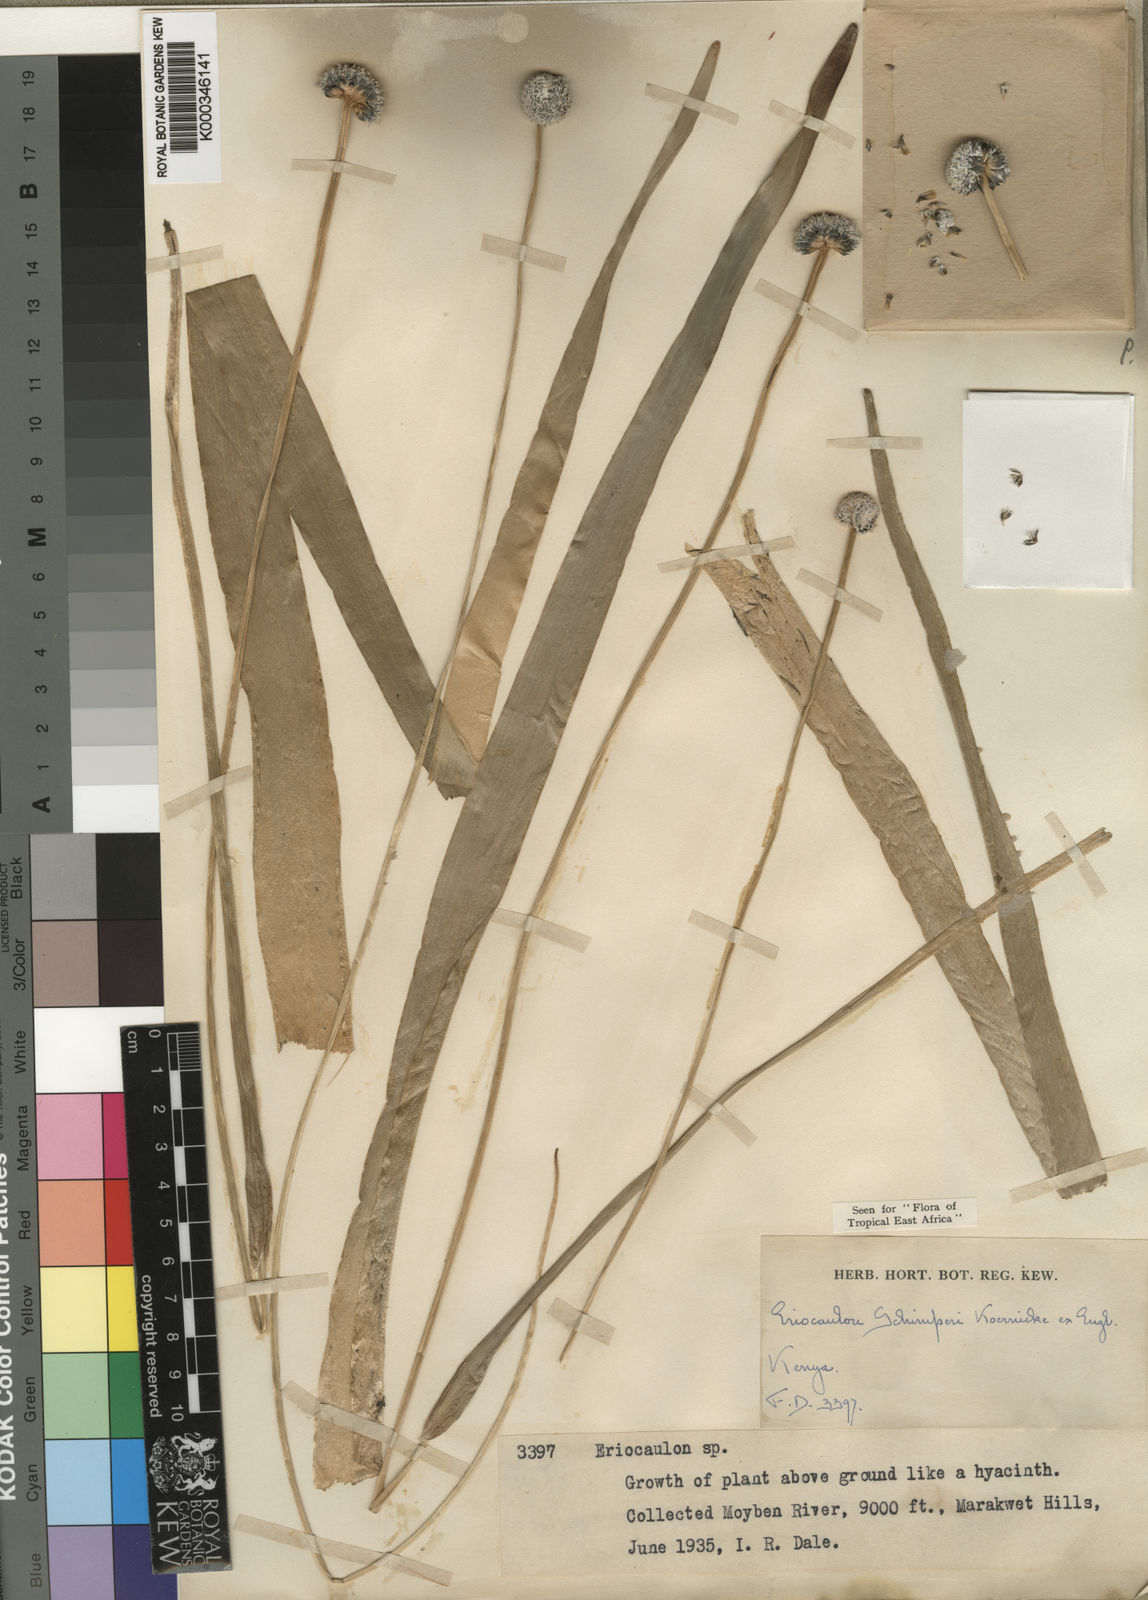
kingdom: Plantae
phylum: Tracheophyta
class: Liliopsida
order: Poales
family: Eriocaulaceae
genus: Eriocaulon
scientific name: Eriocaulon
